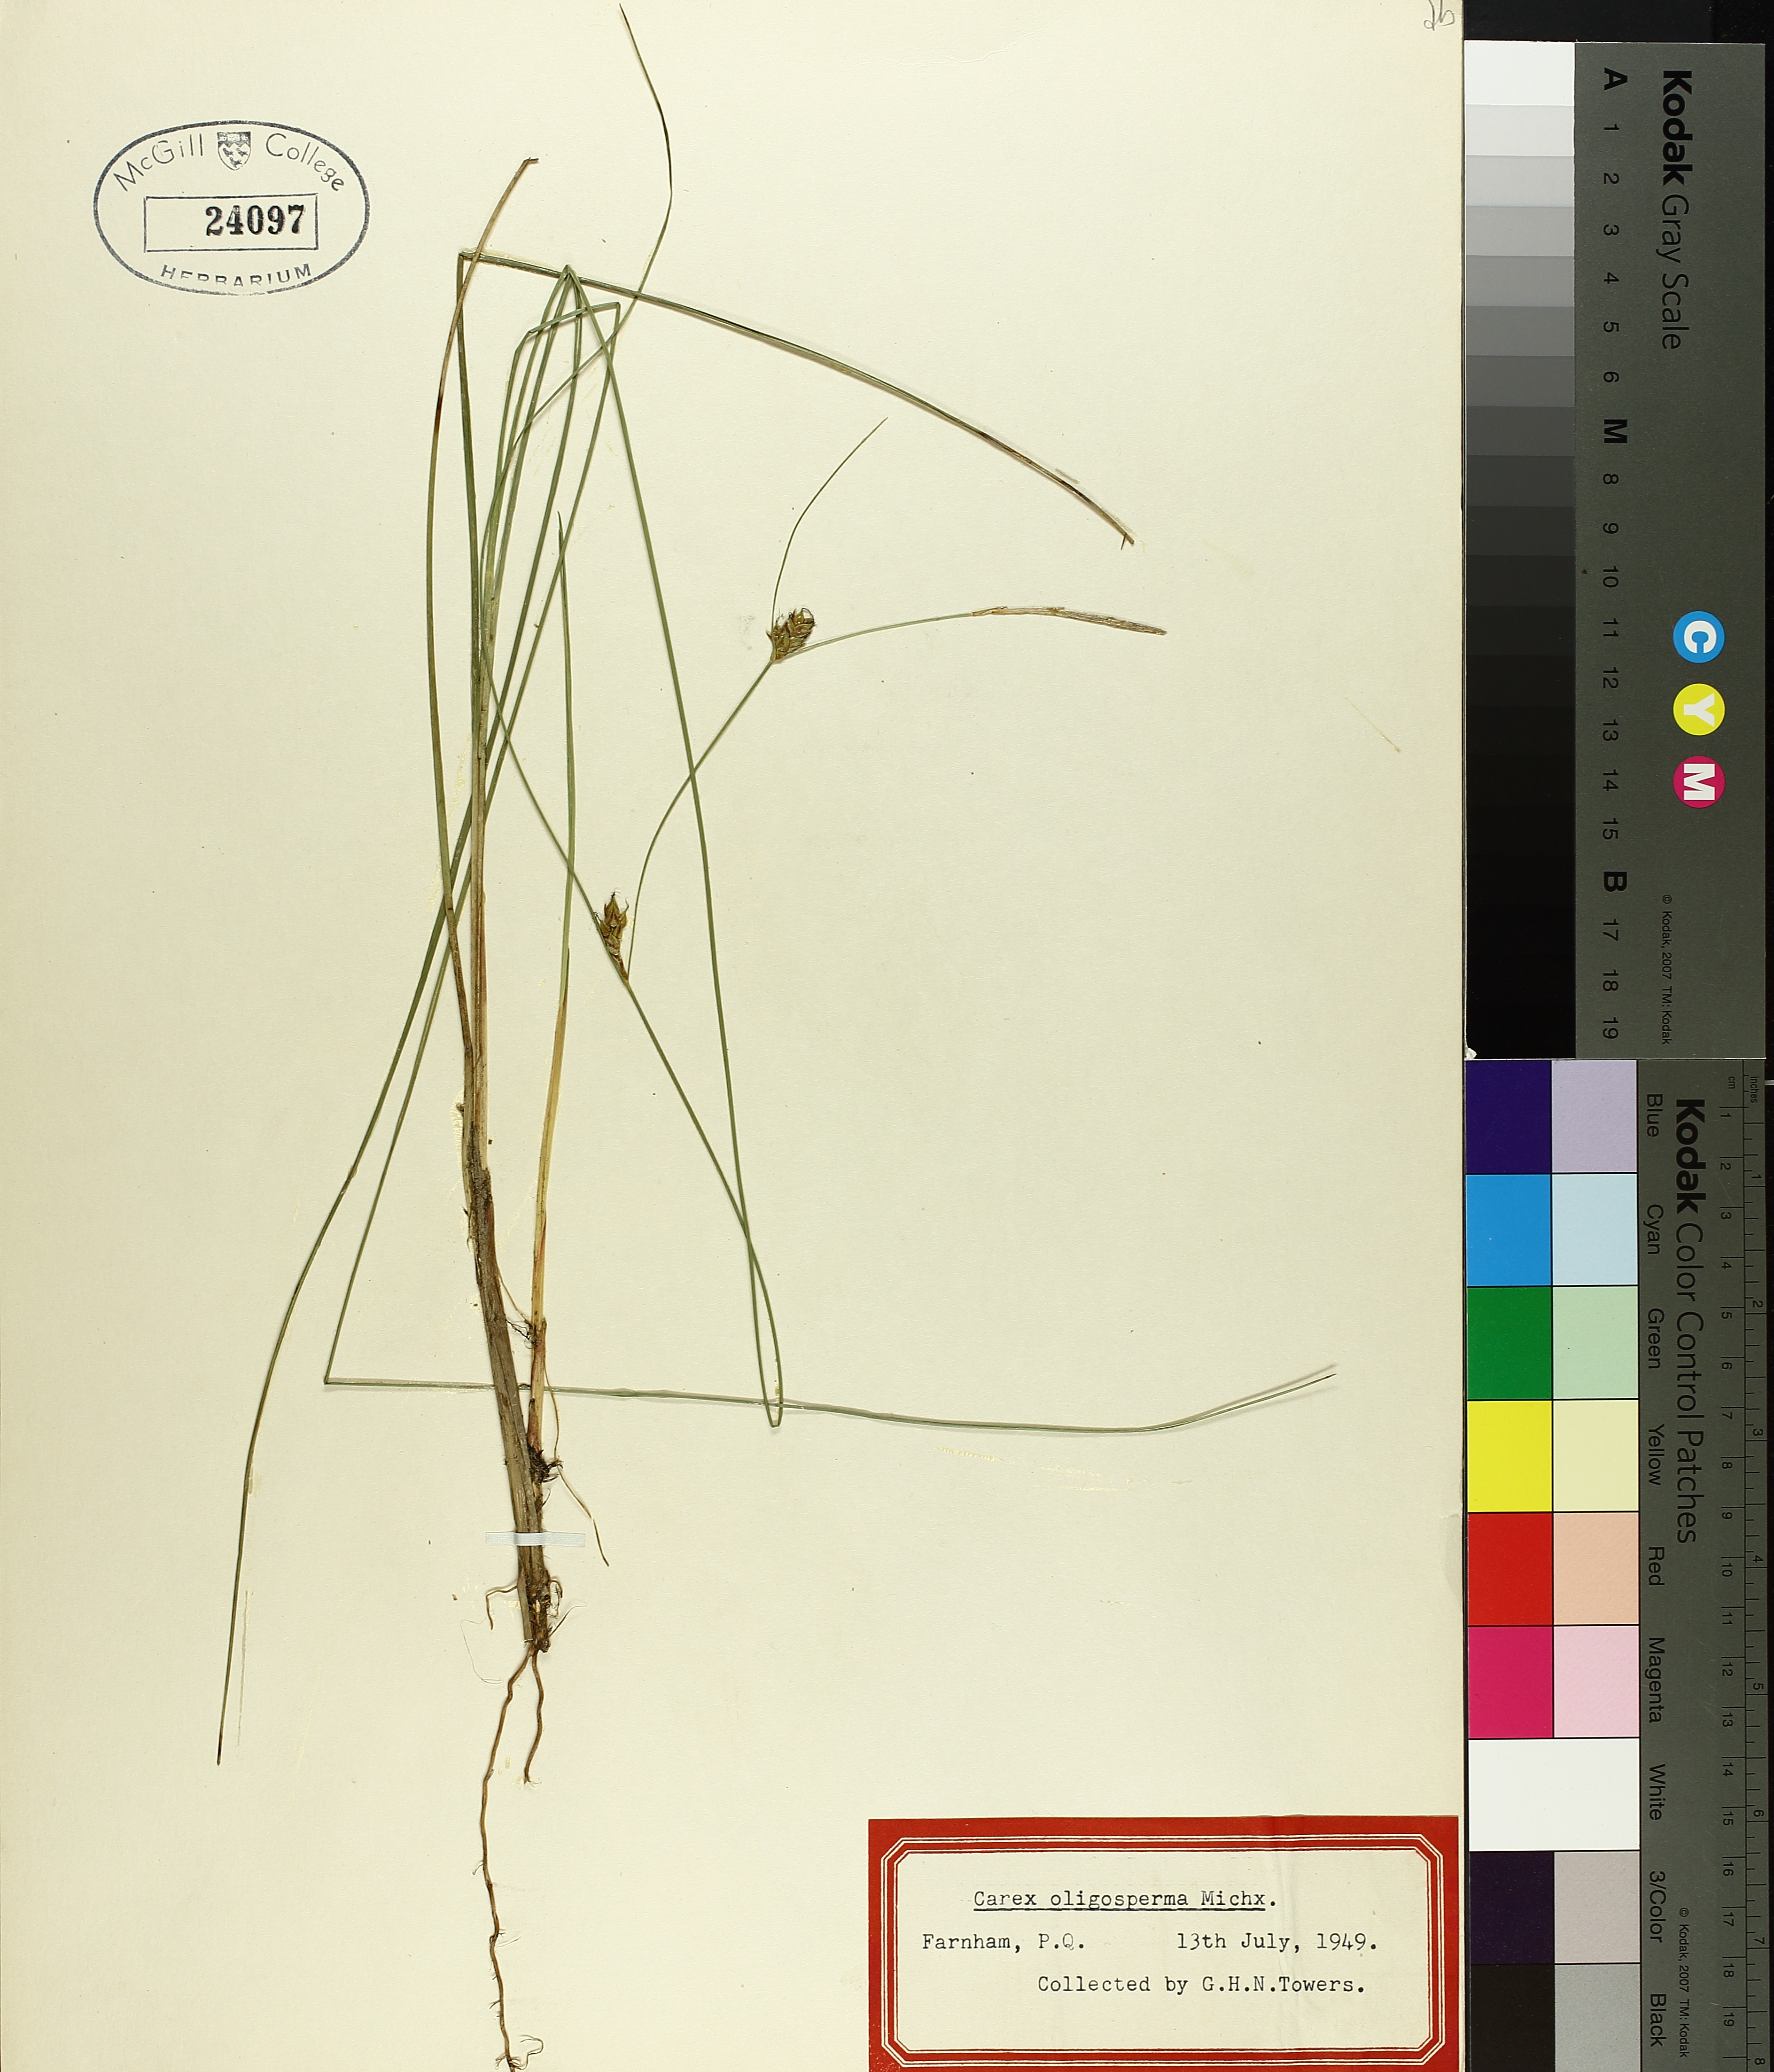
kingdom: Plantae
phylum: Tracheophyta
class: Liliopsida
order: Poales
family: Cyperaceae
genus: Carex
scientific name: Carex oligosperma
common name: Few-seed sedge
